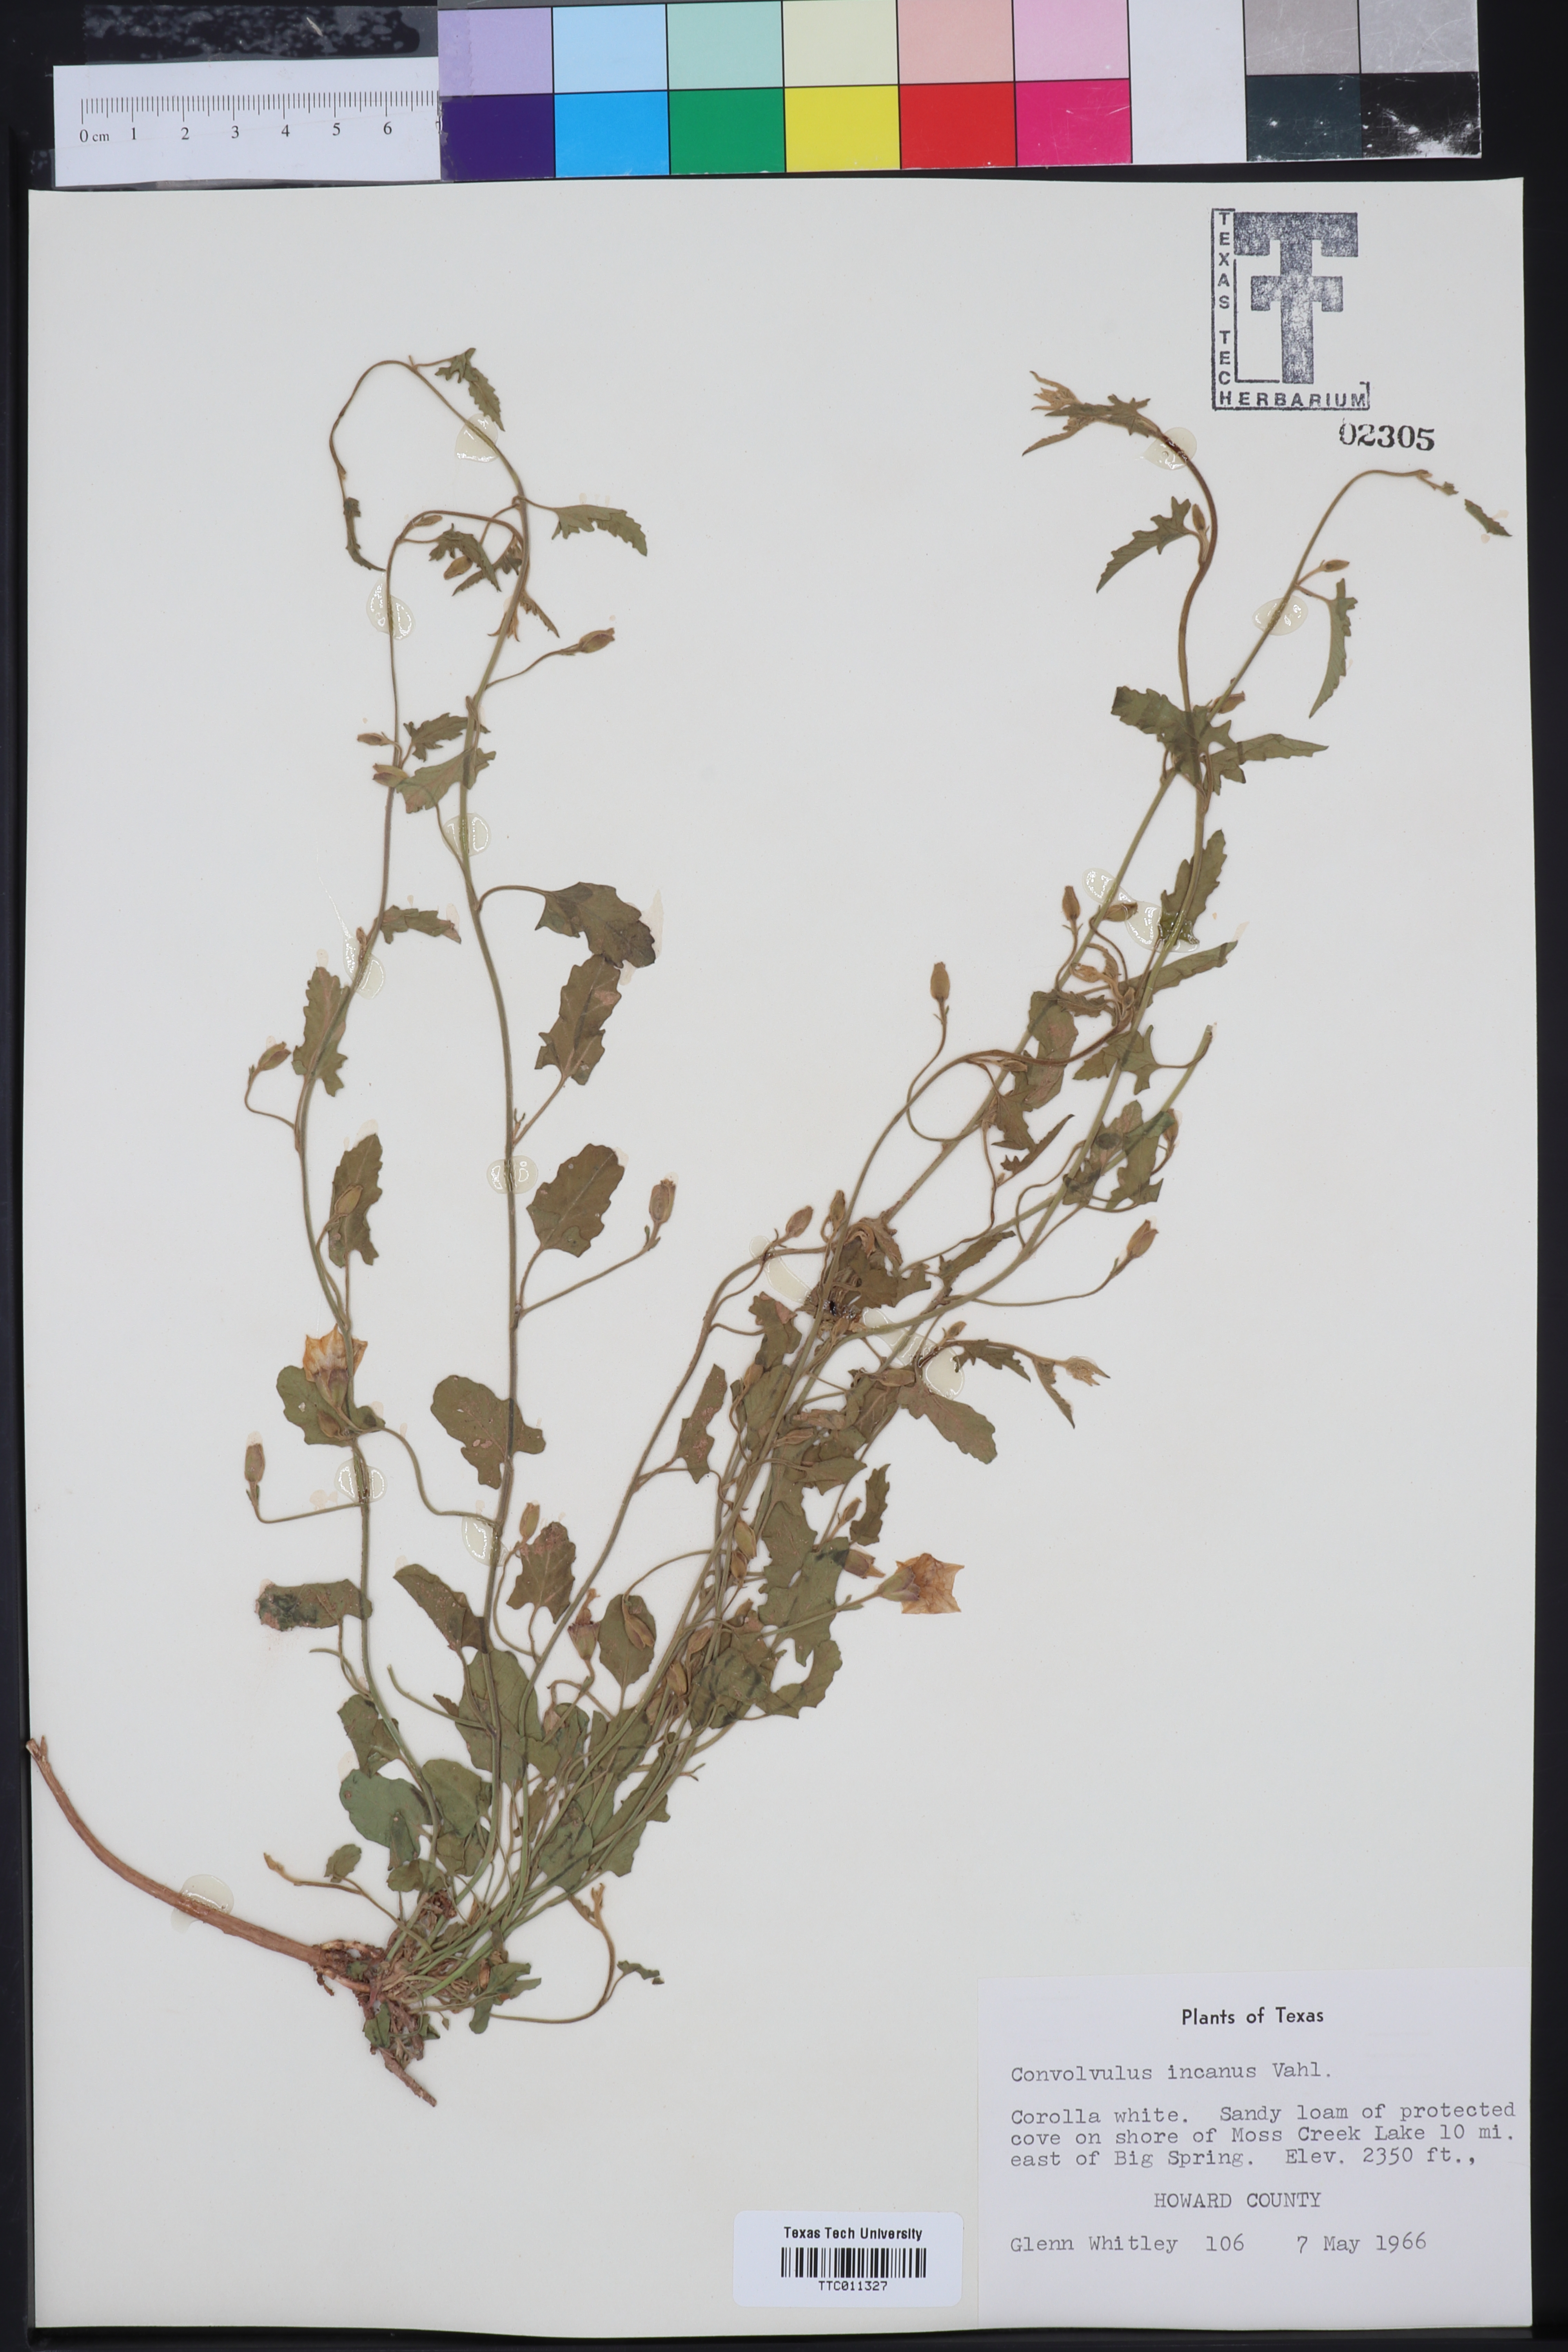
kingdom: Plantae
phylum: Tracheophyta
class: Magnoliopsida
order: Solanales
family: Convolvulaceae
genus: Convolvulus
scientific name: Convolvulus hermanniae
